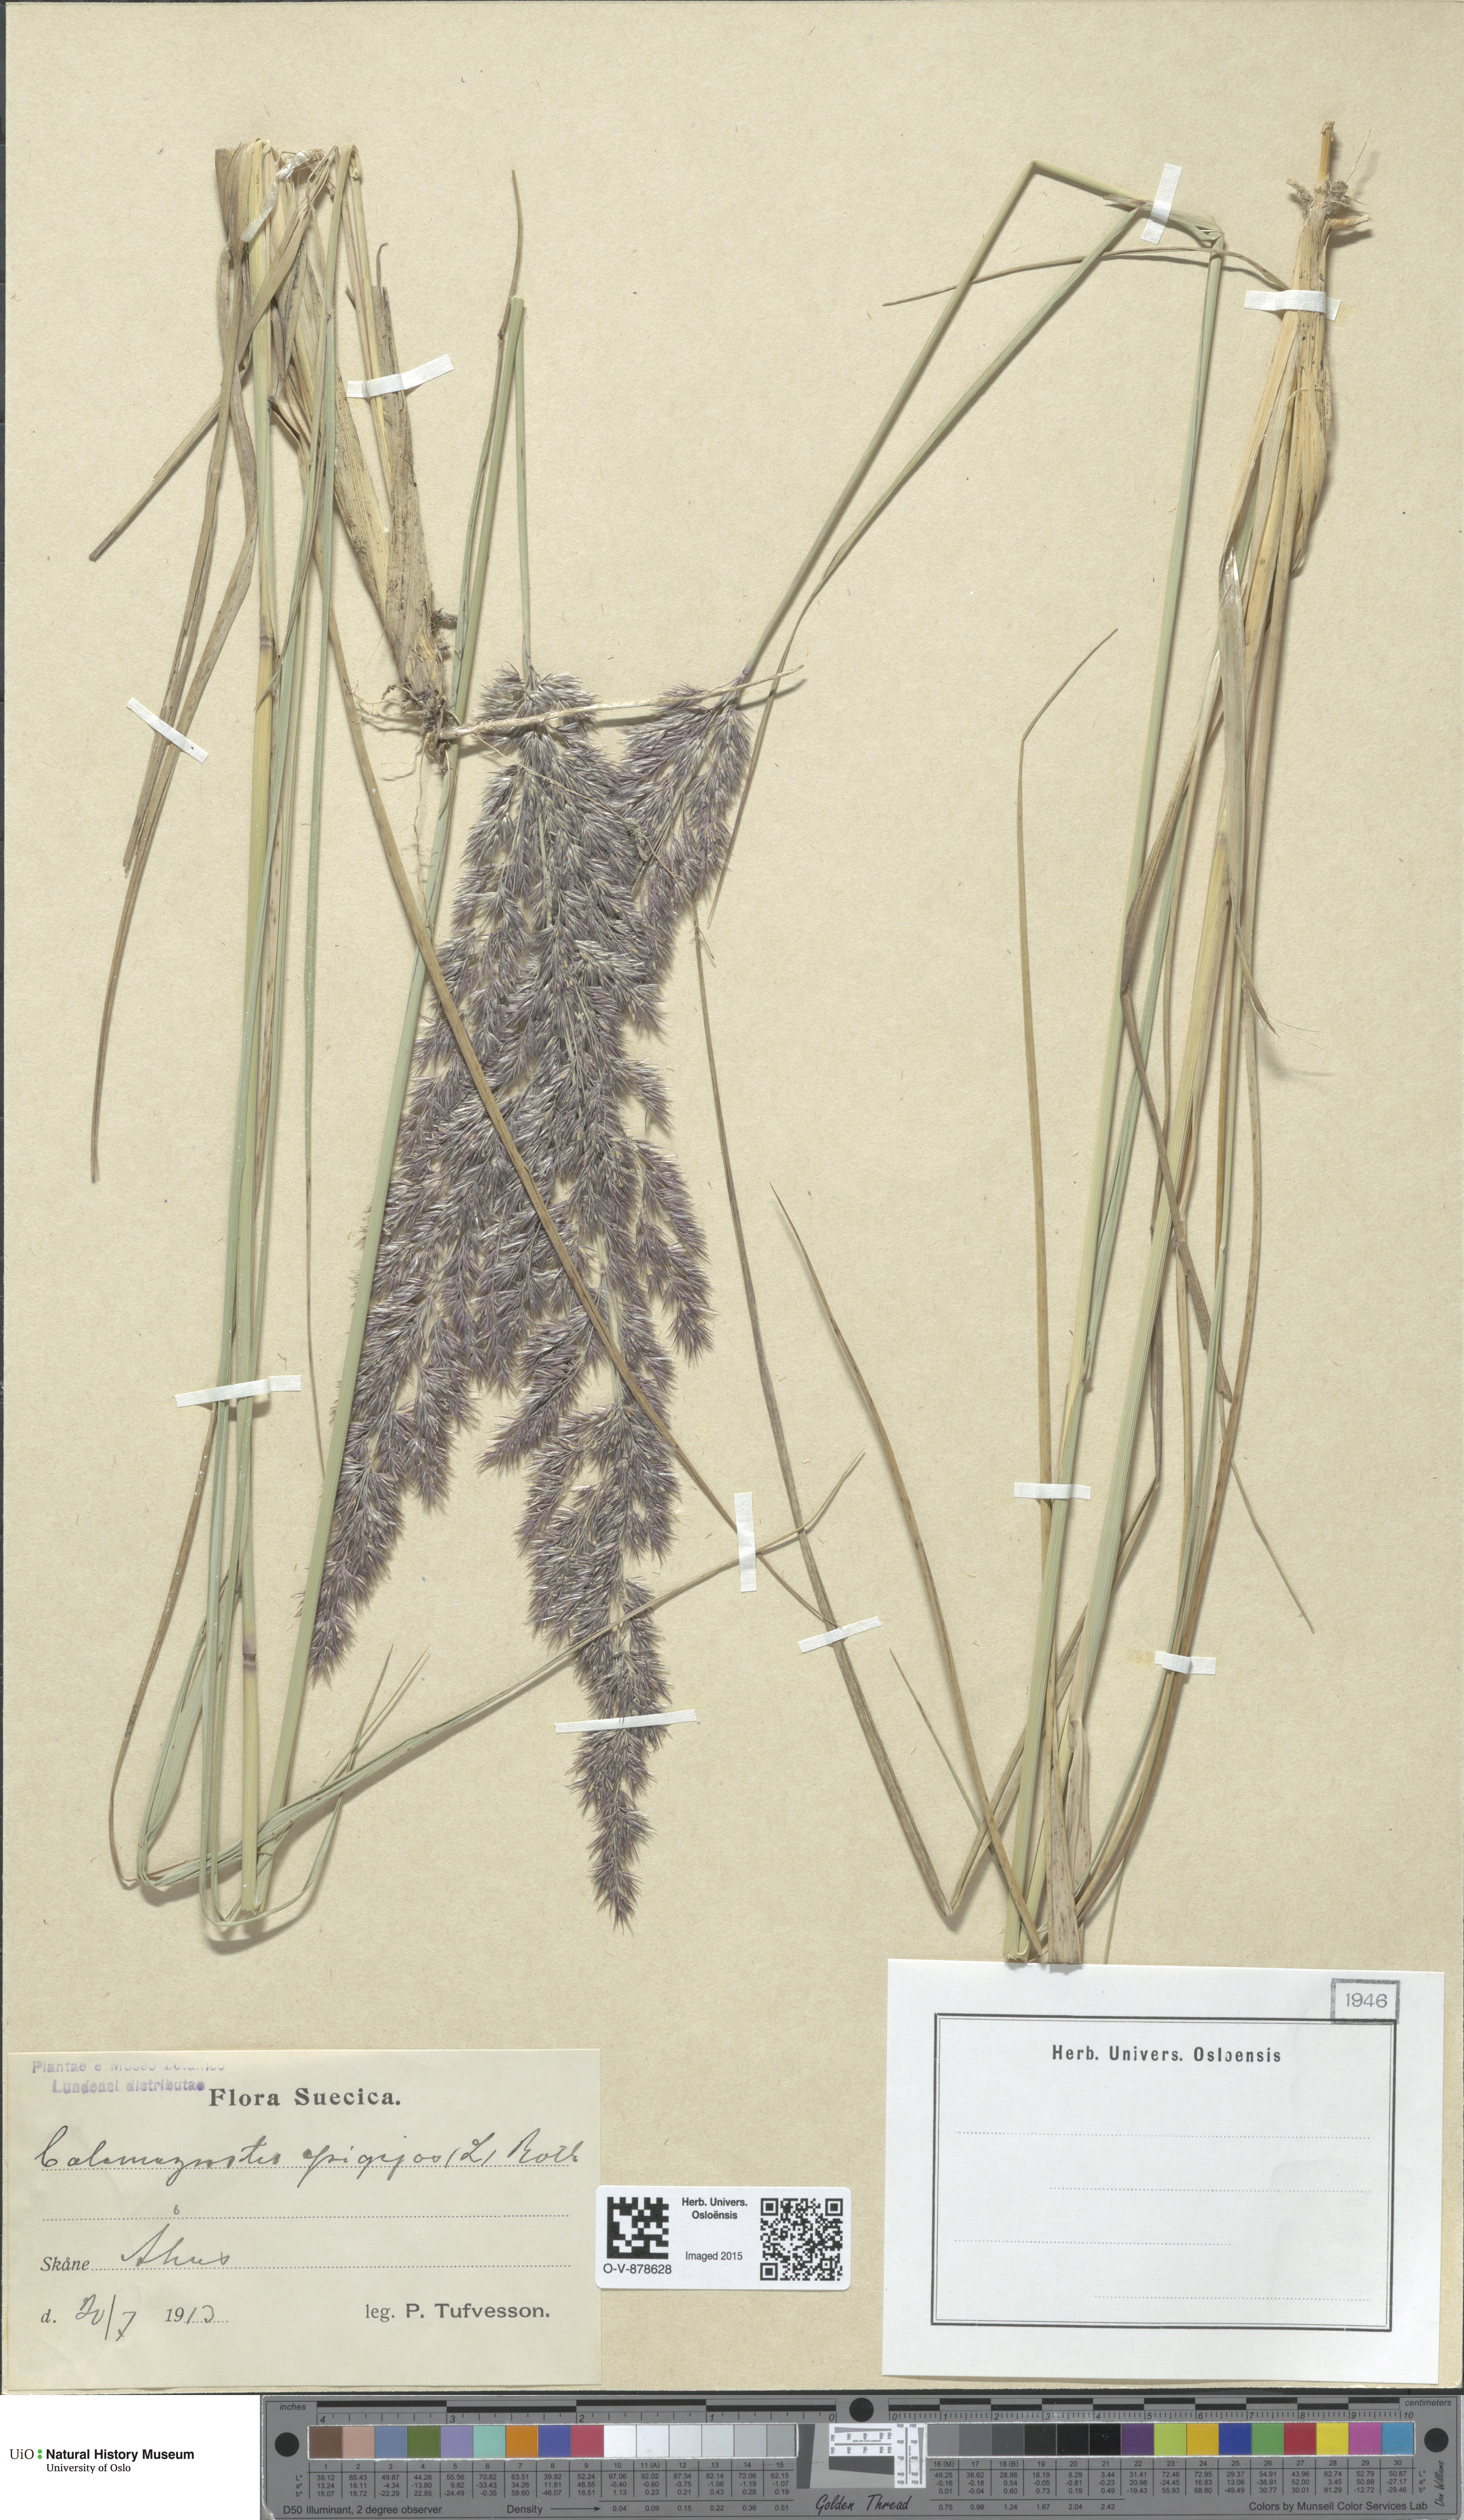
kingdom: Plantae
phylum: Tracheophyta
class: Liliopsida
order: Poales
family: Poaceae
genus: Calamagrostis
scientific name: Calamagrostis epigejos
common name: Wood small-reed
